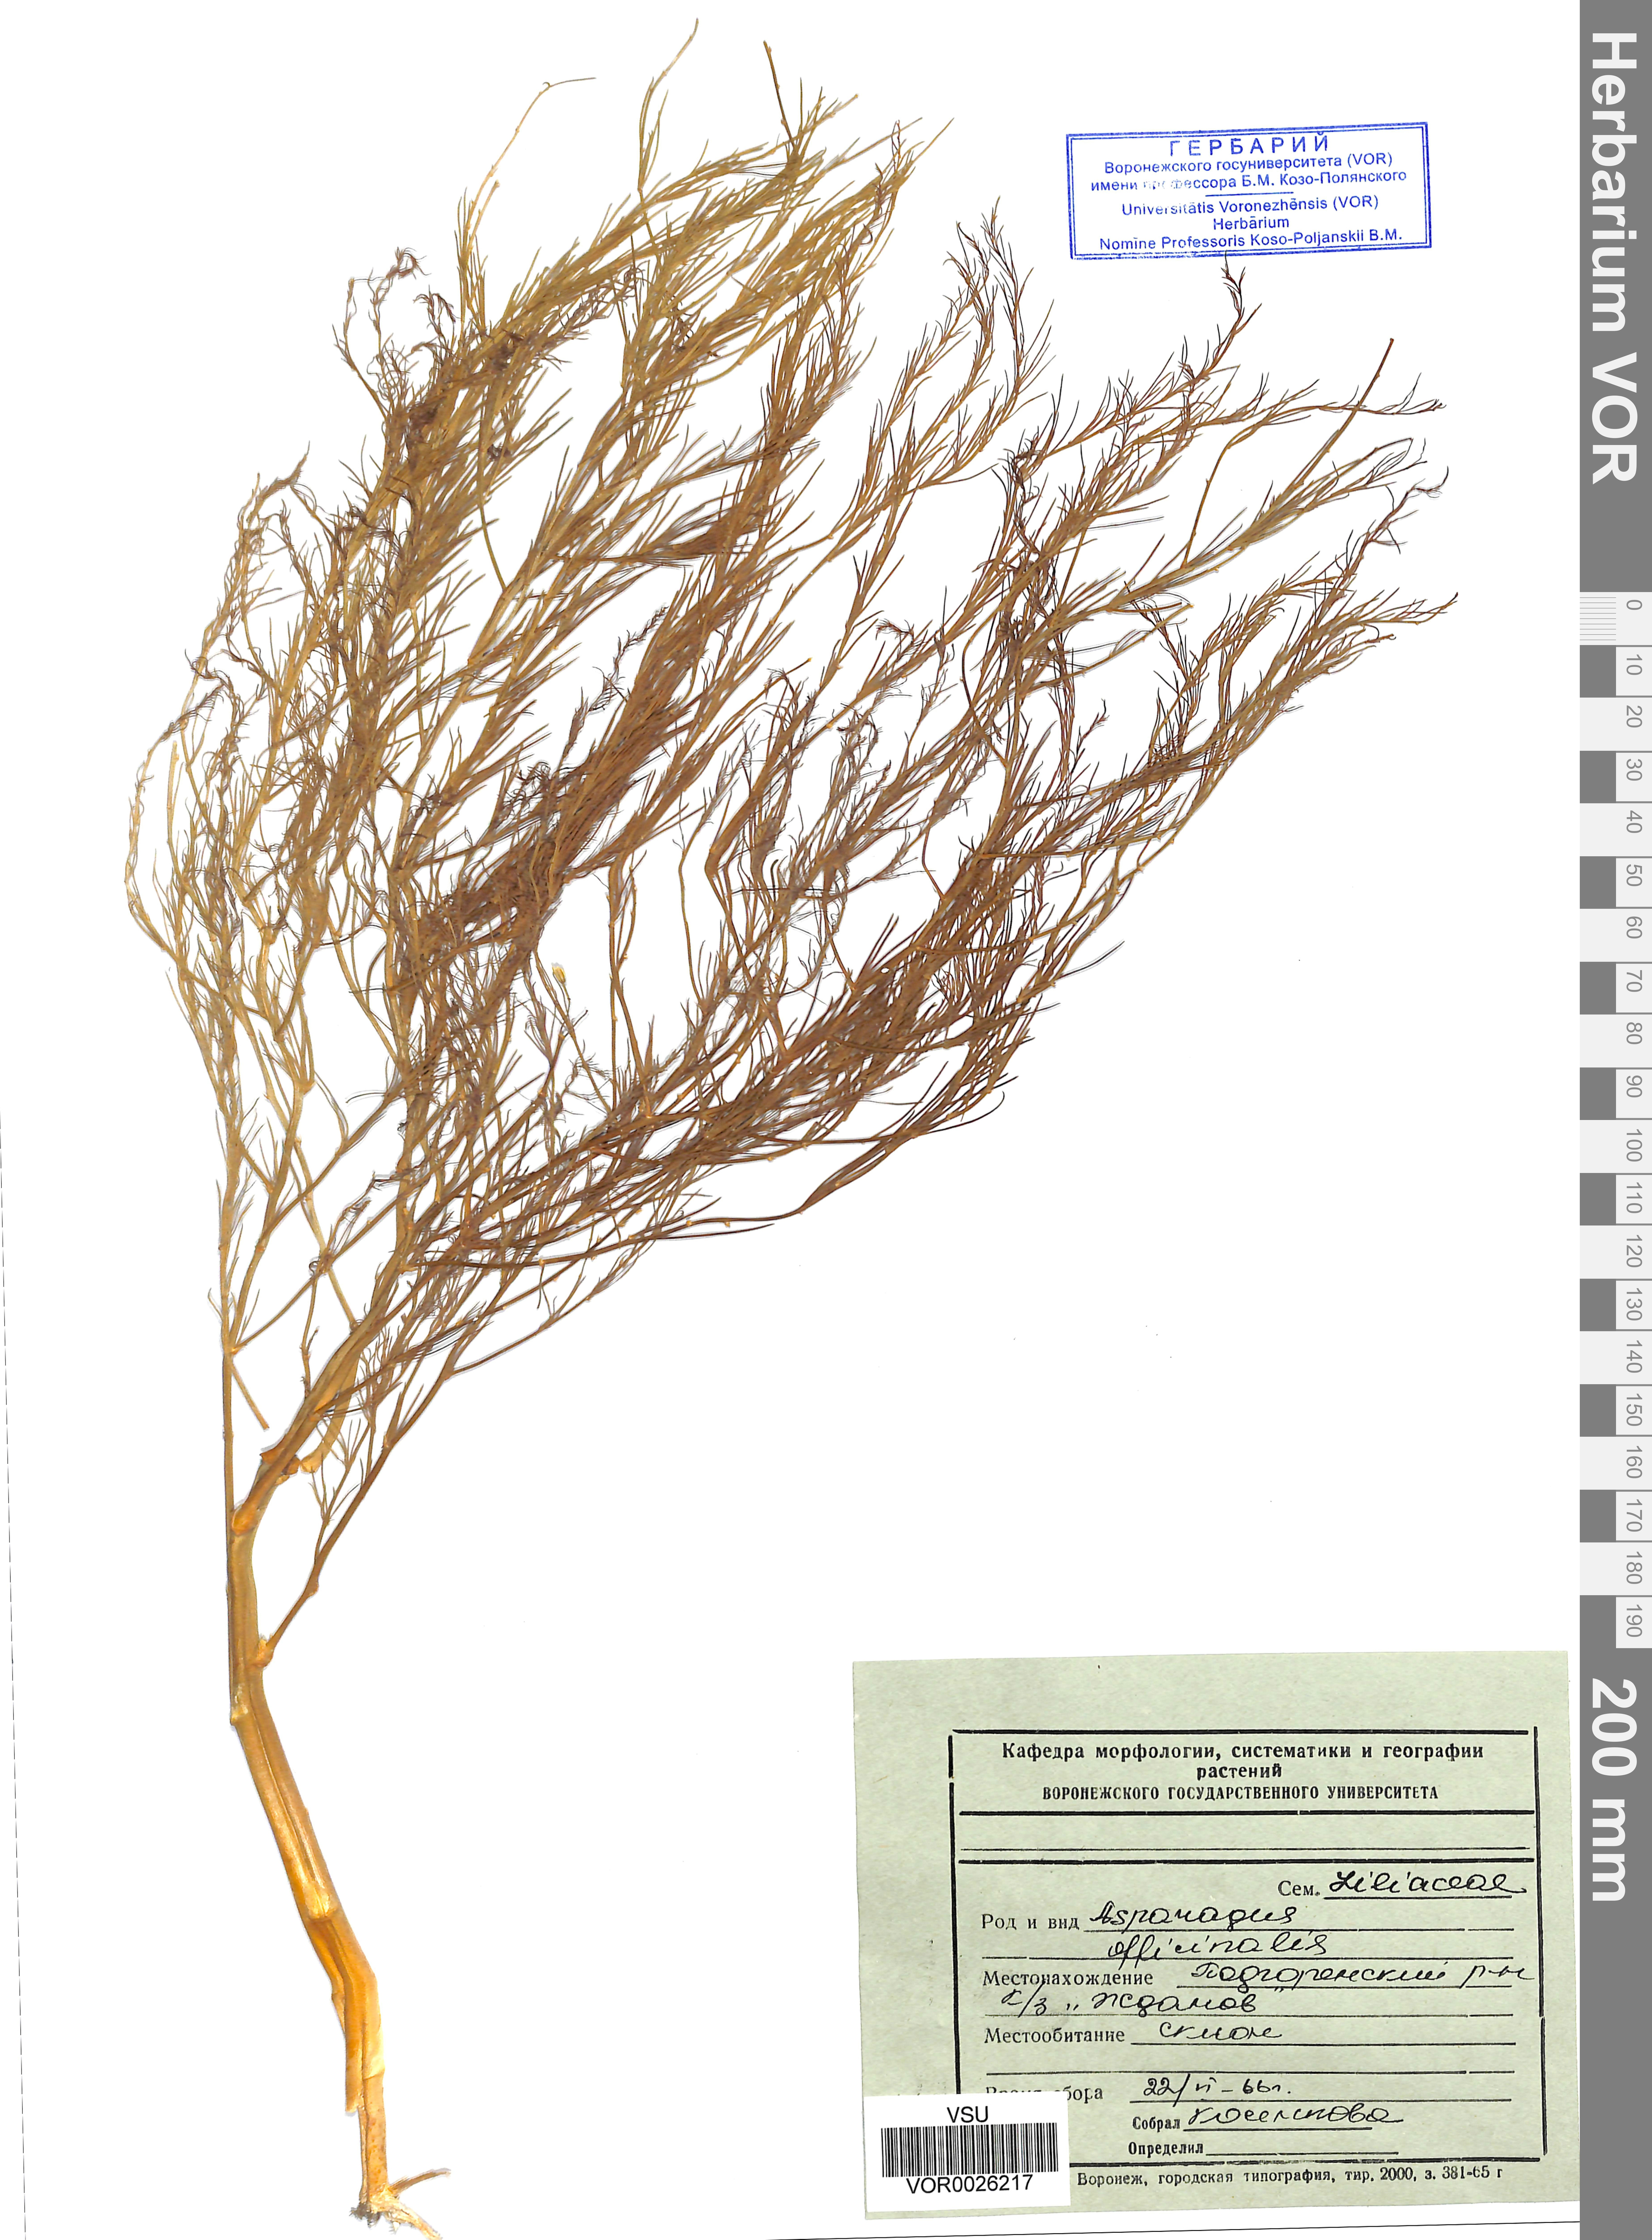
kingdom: Plantae
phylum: Tracheophyta
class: Liliopsida
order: Asparagales
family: Asparagaceae
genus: Asparagus
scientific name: Asparagus officinalis
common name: Garden asparagus
